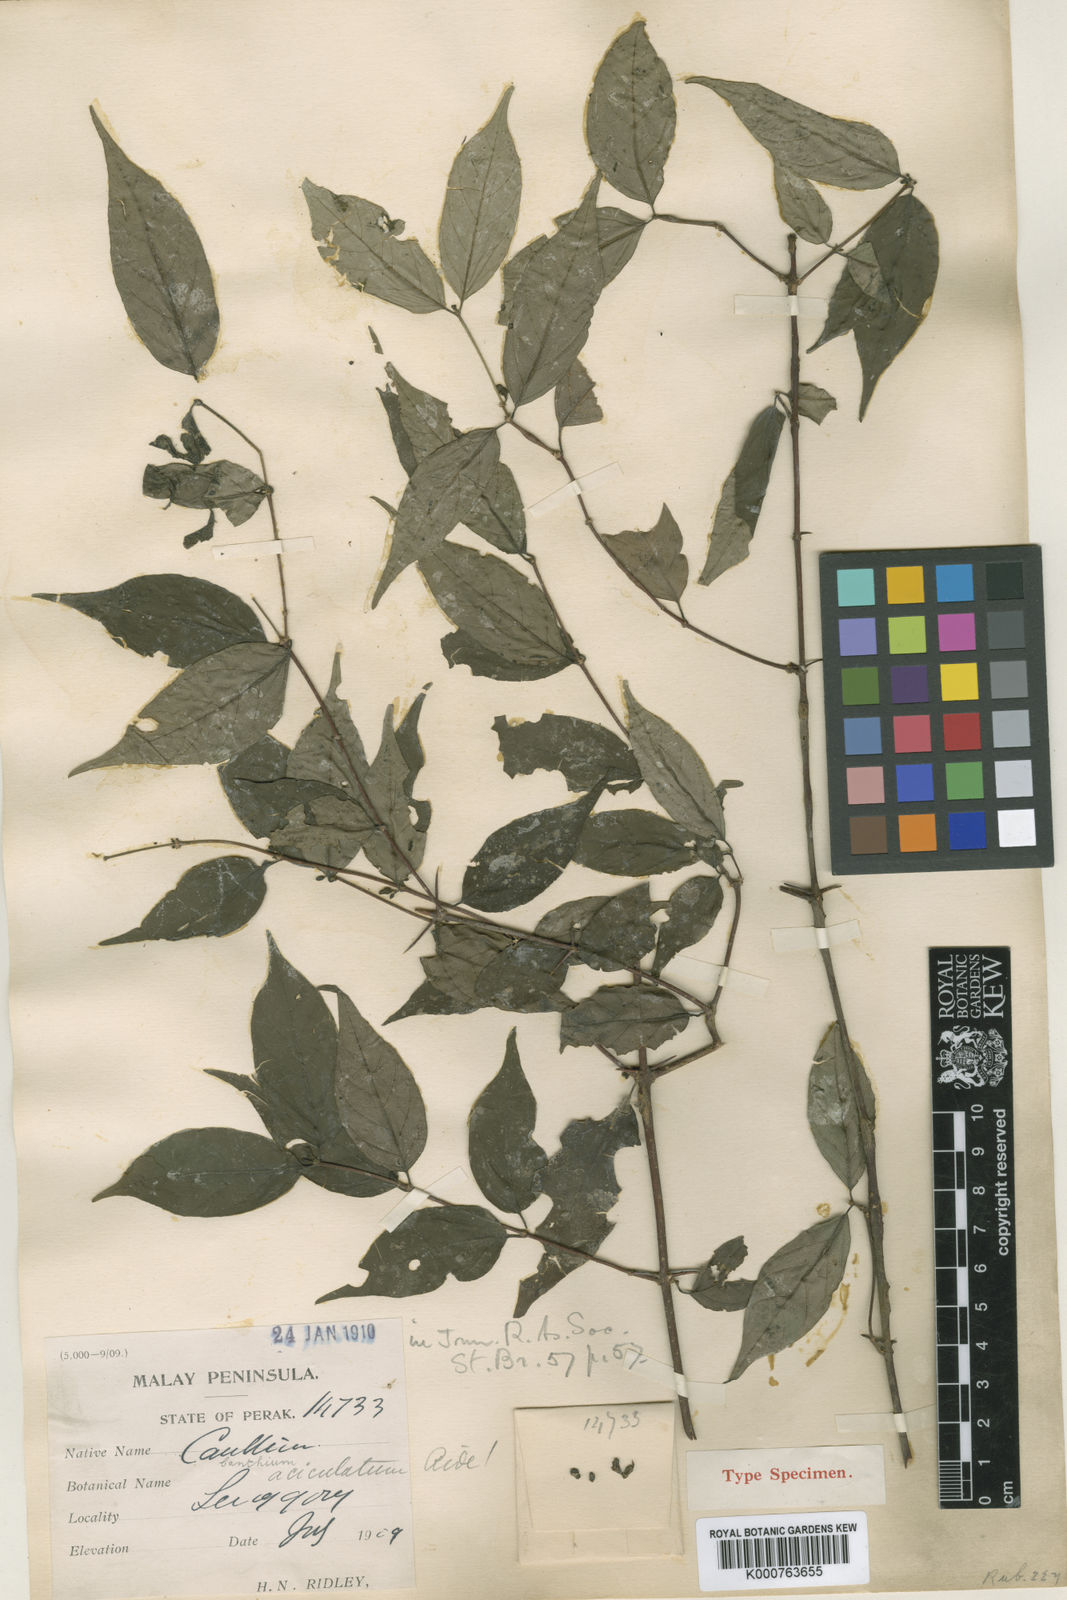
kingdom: Plantae
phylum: Tracheophyta
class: Magnoliopsida
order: Gentianales
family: Rubiaceae
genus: Canthium
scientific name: Canthium aciculatum
